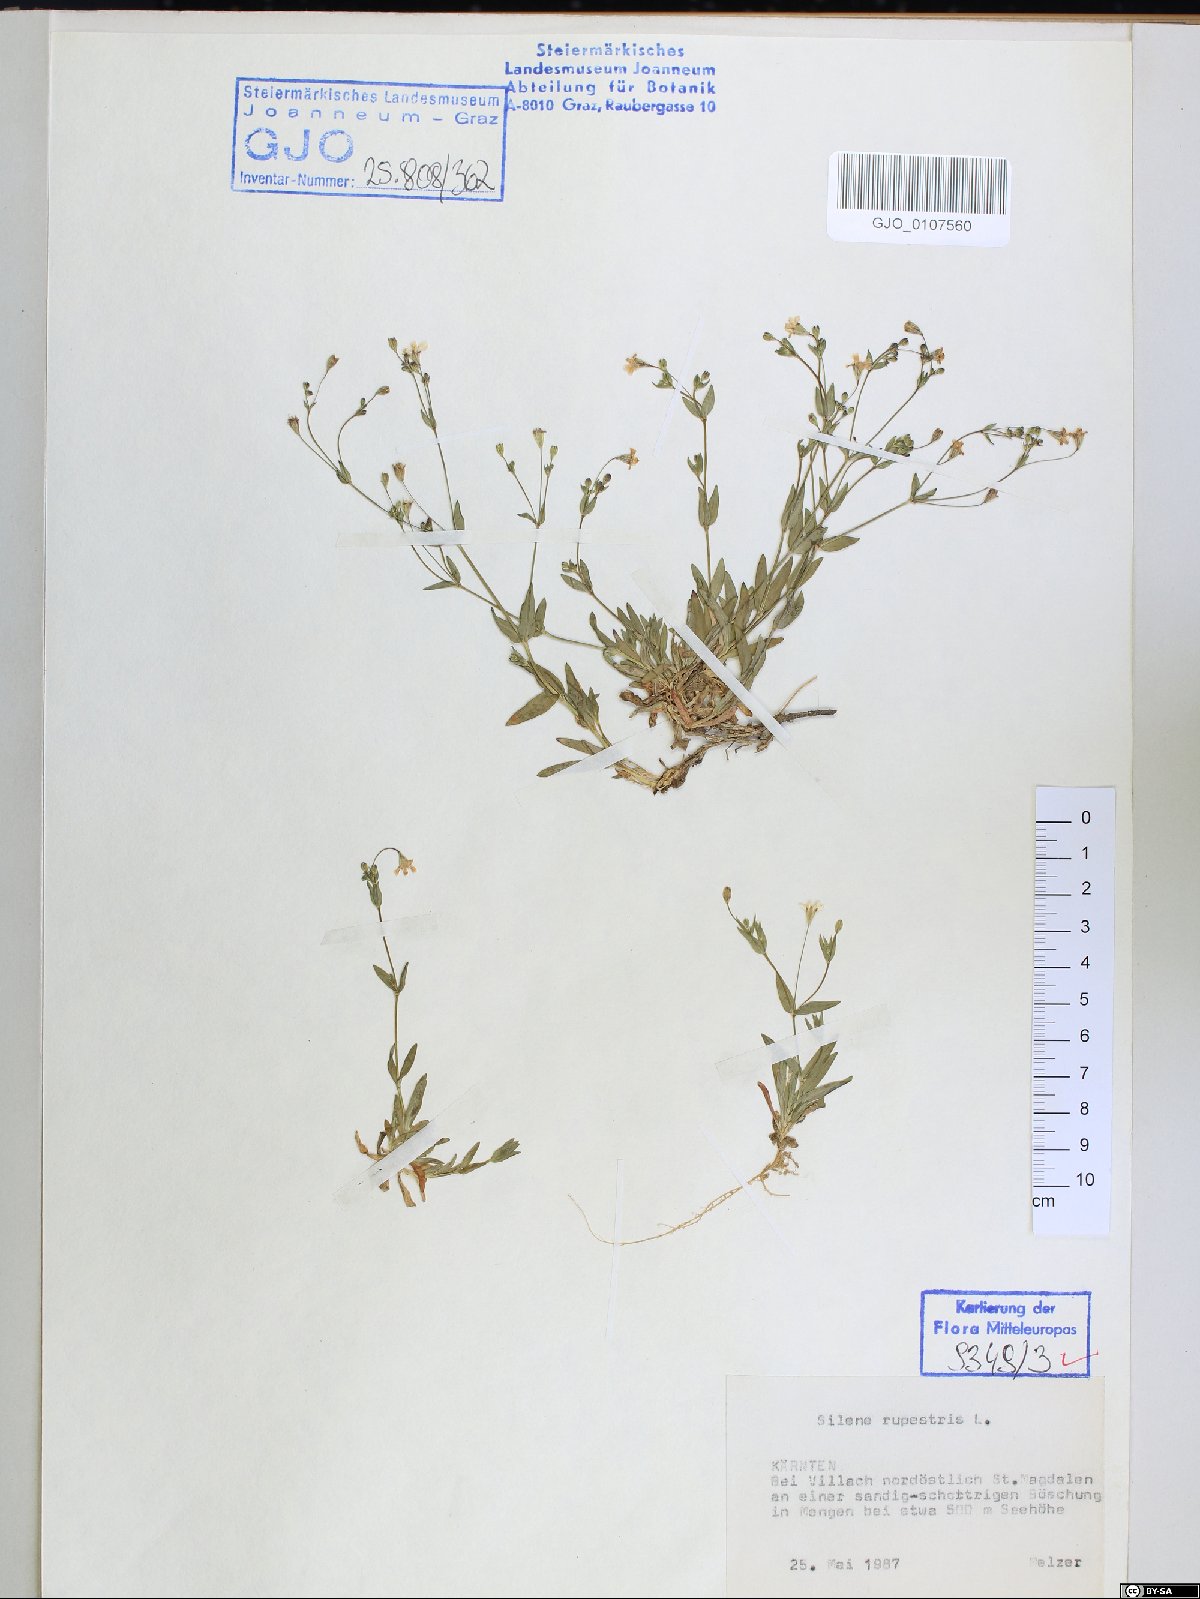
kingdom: Plantae
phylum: Tracheophyta
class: Magnoliopsida
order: Caryophyllales
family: Caryophyllaceae
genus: Atocion
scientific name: Atocion rupestre
